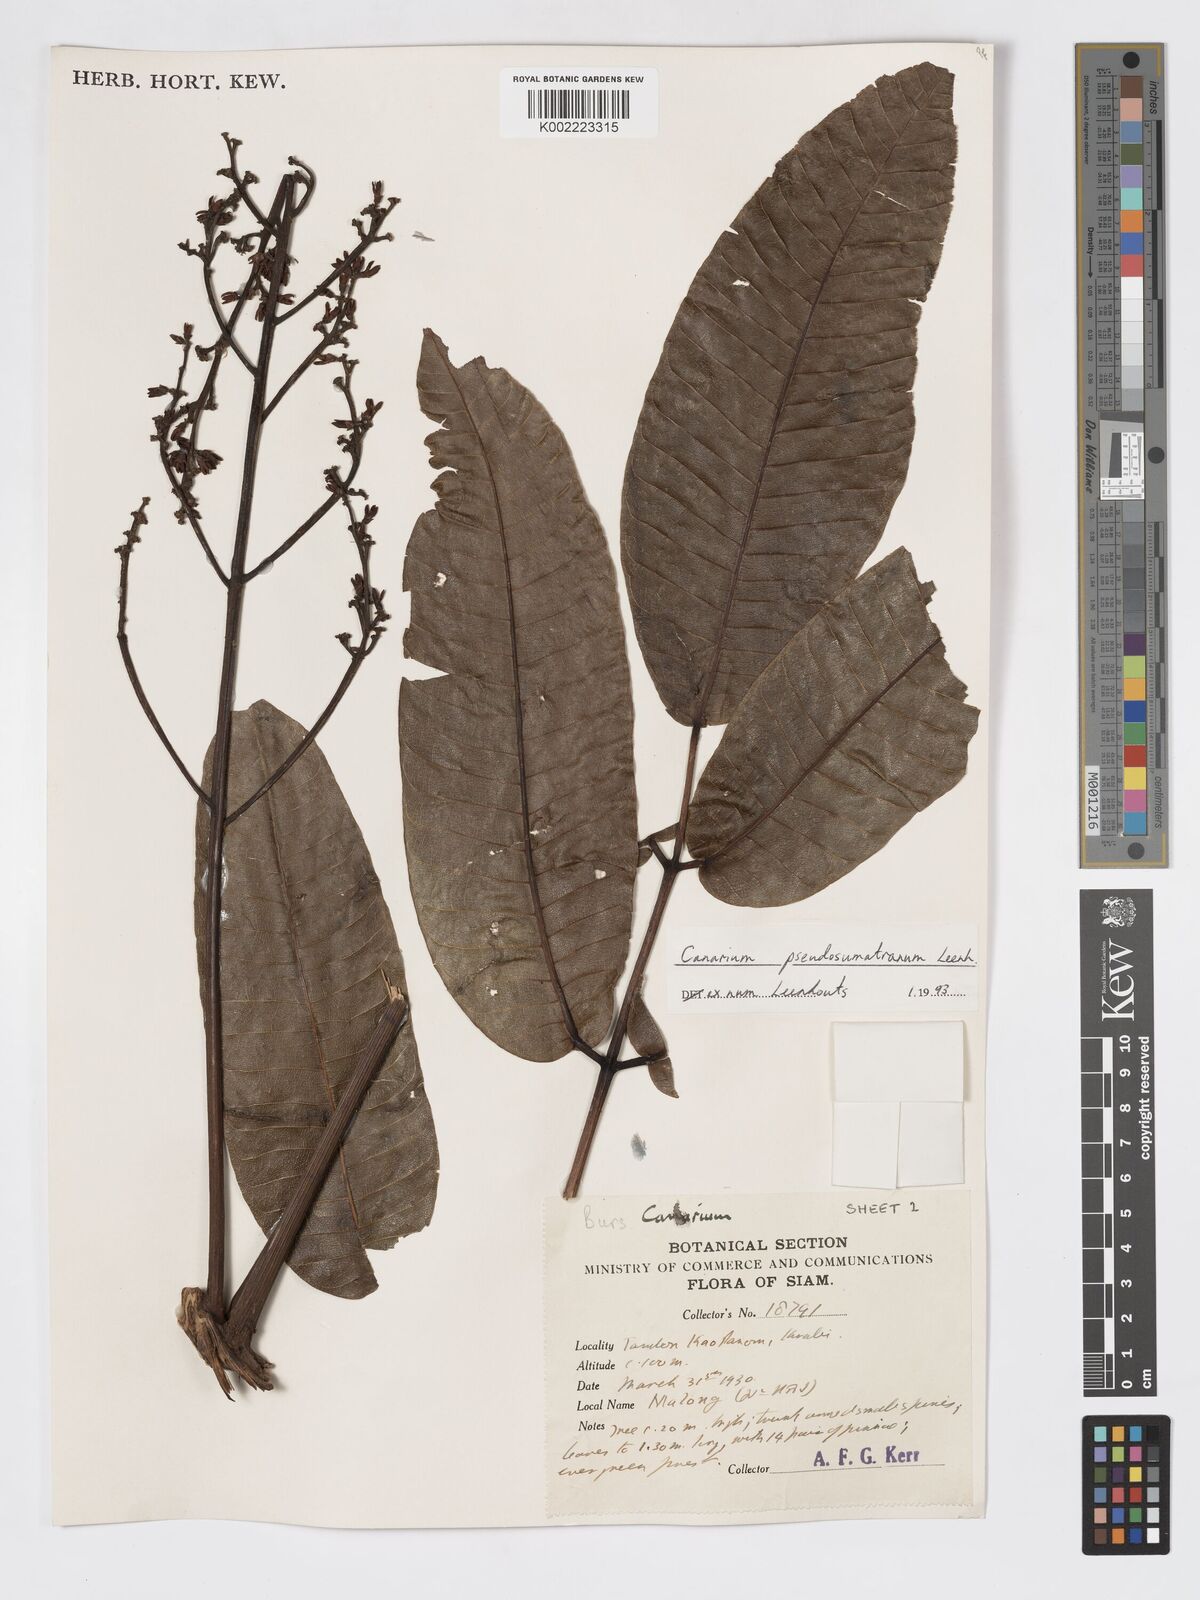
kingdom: Plantae
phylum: Tracheophyta
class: Magnoliopsida
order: Sapindales
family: Burseraceae
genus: Canarium
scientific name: Canarium pseudosumatranum
